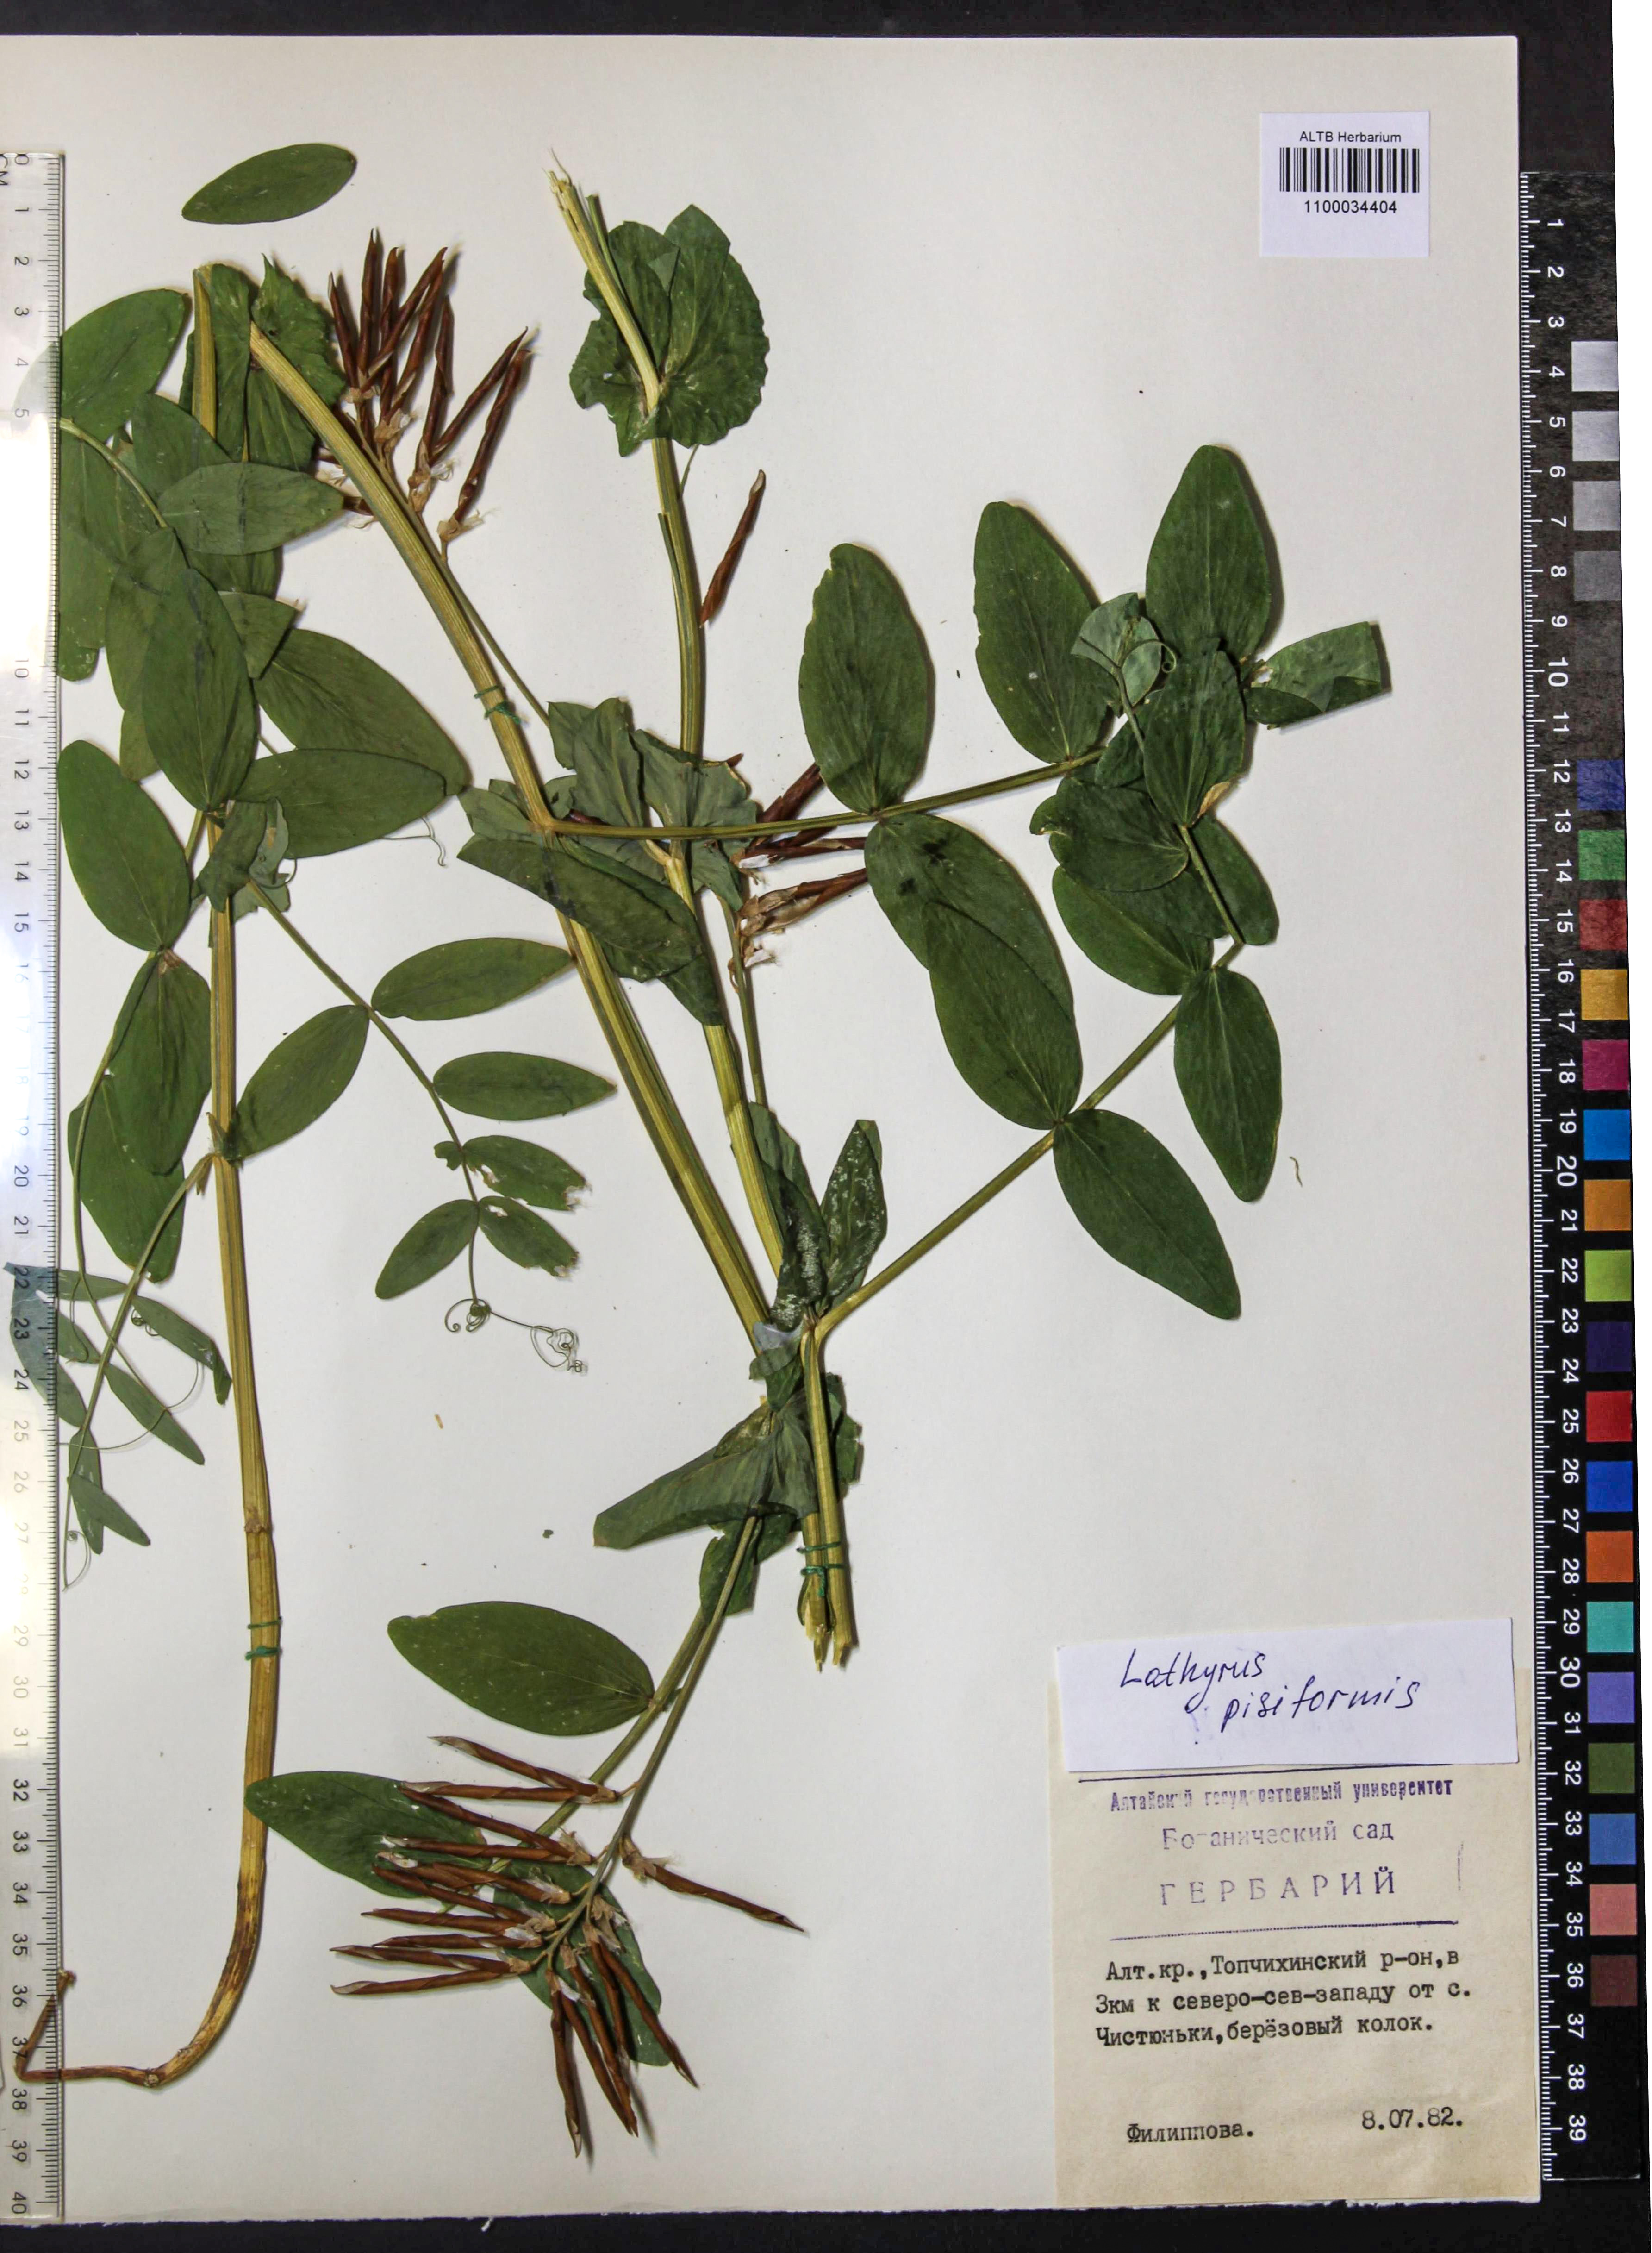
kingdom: Plantae
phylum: Tracheophyta
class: Magnoliopsida
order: Fabales
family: Fabaceae
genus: Lathyrus
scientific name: Lathyrus pisiformis
